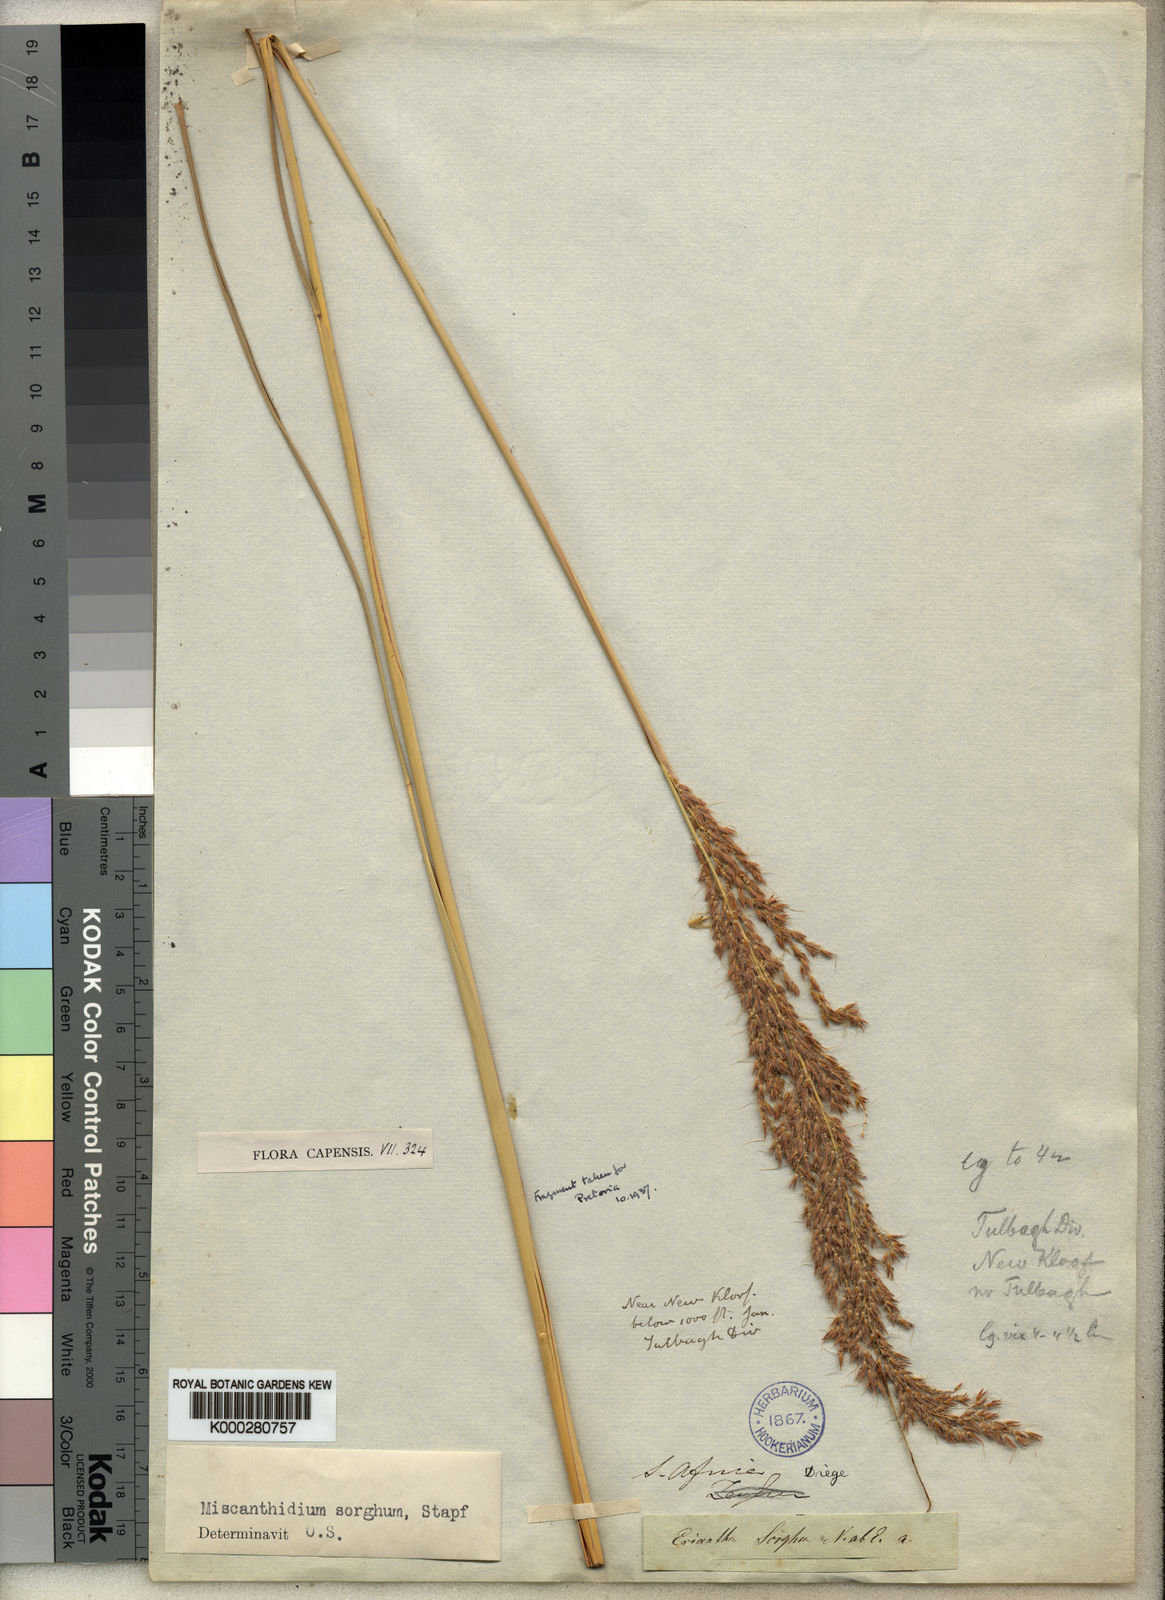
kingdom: Plantae
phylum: Tracheophyta
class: Liliopsida
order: Poales
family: Poaceae
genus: Miscanthus
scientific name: Miscanthus ecklonii
